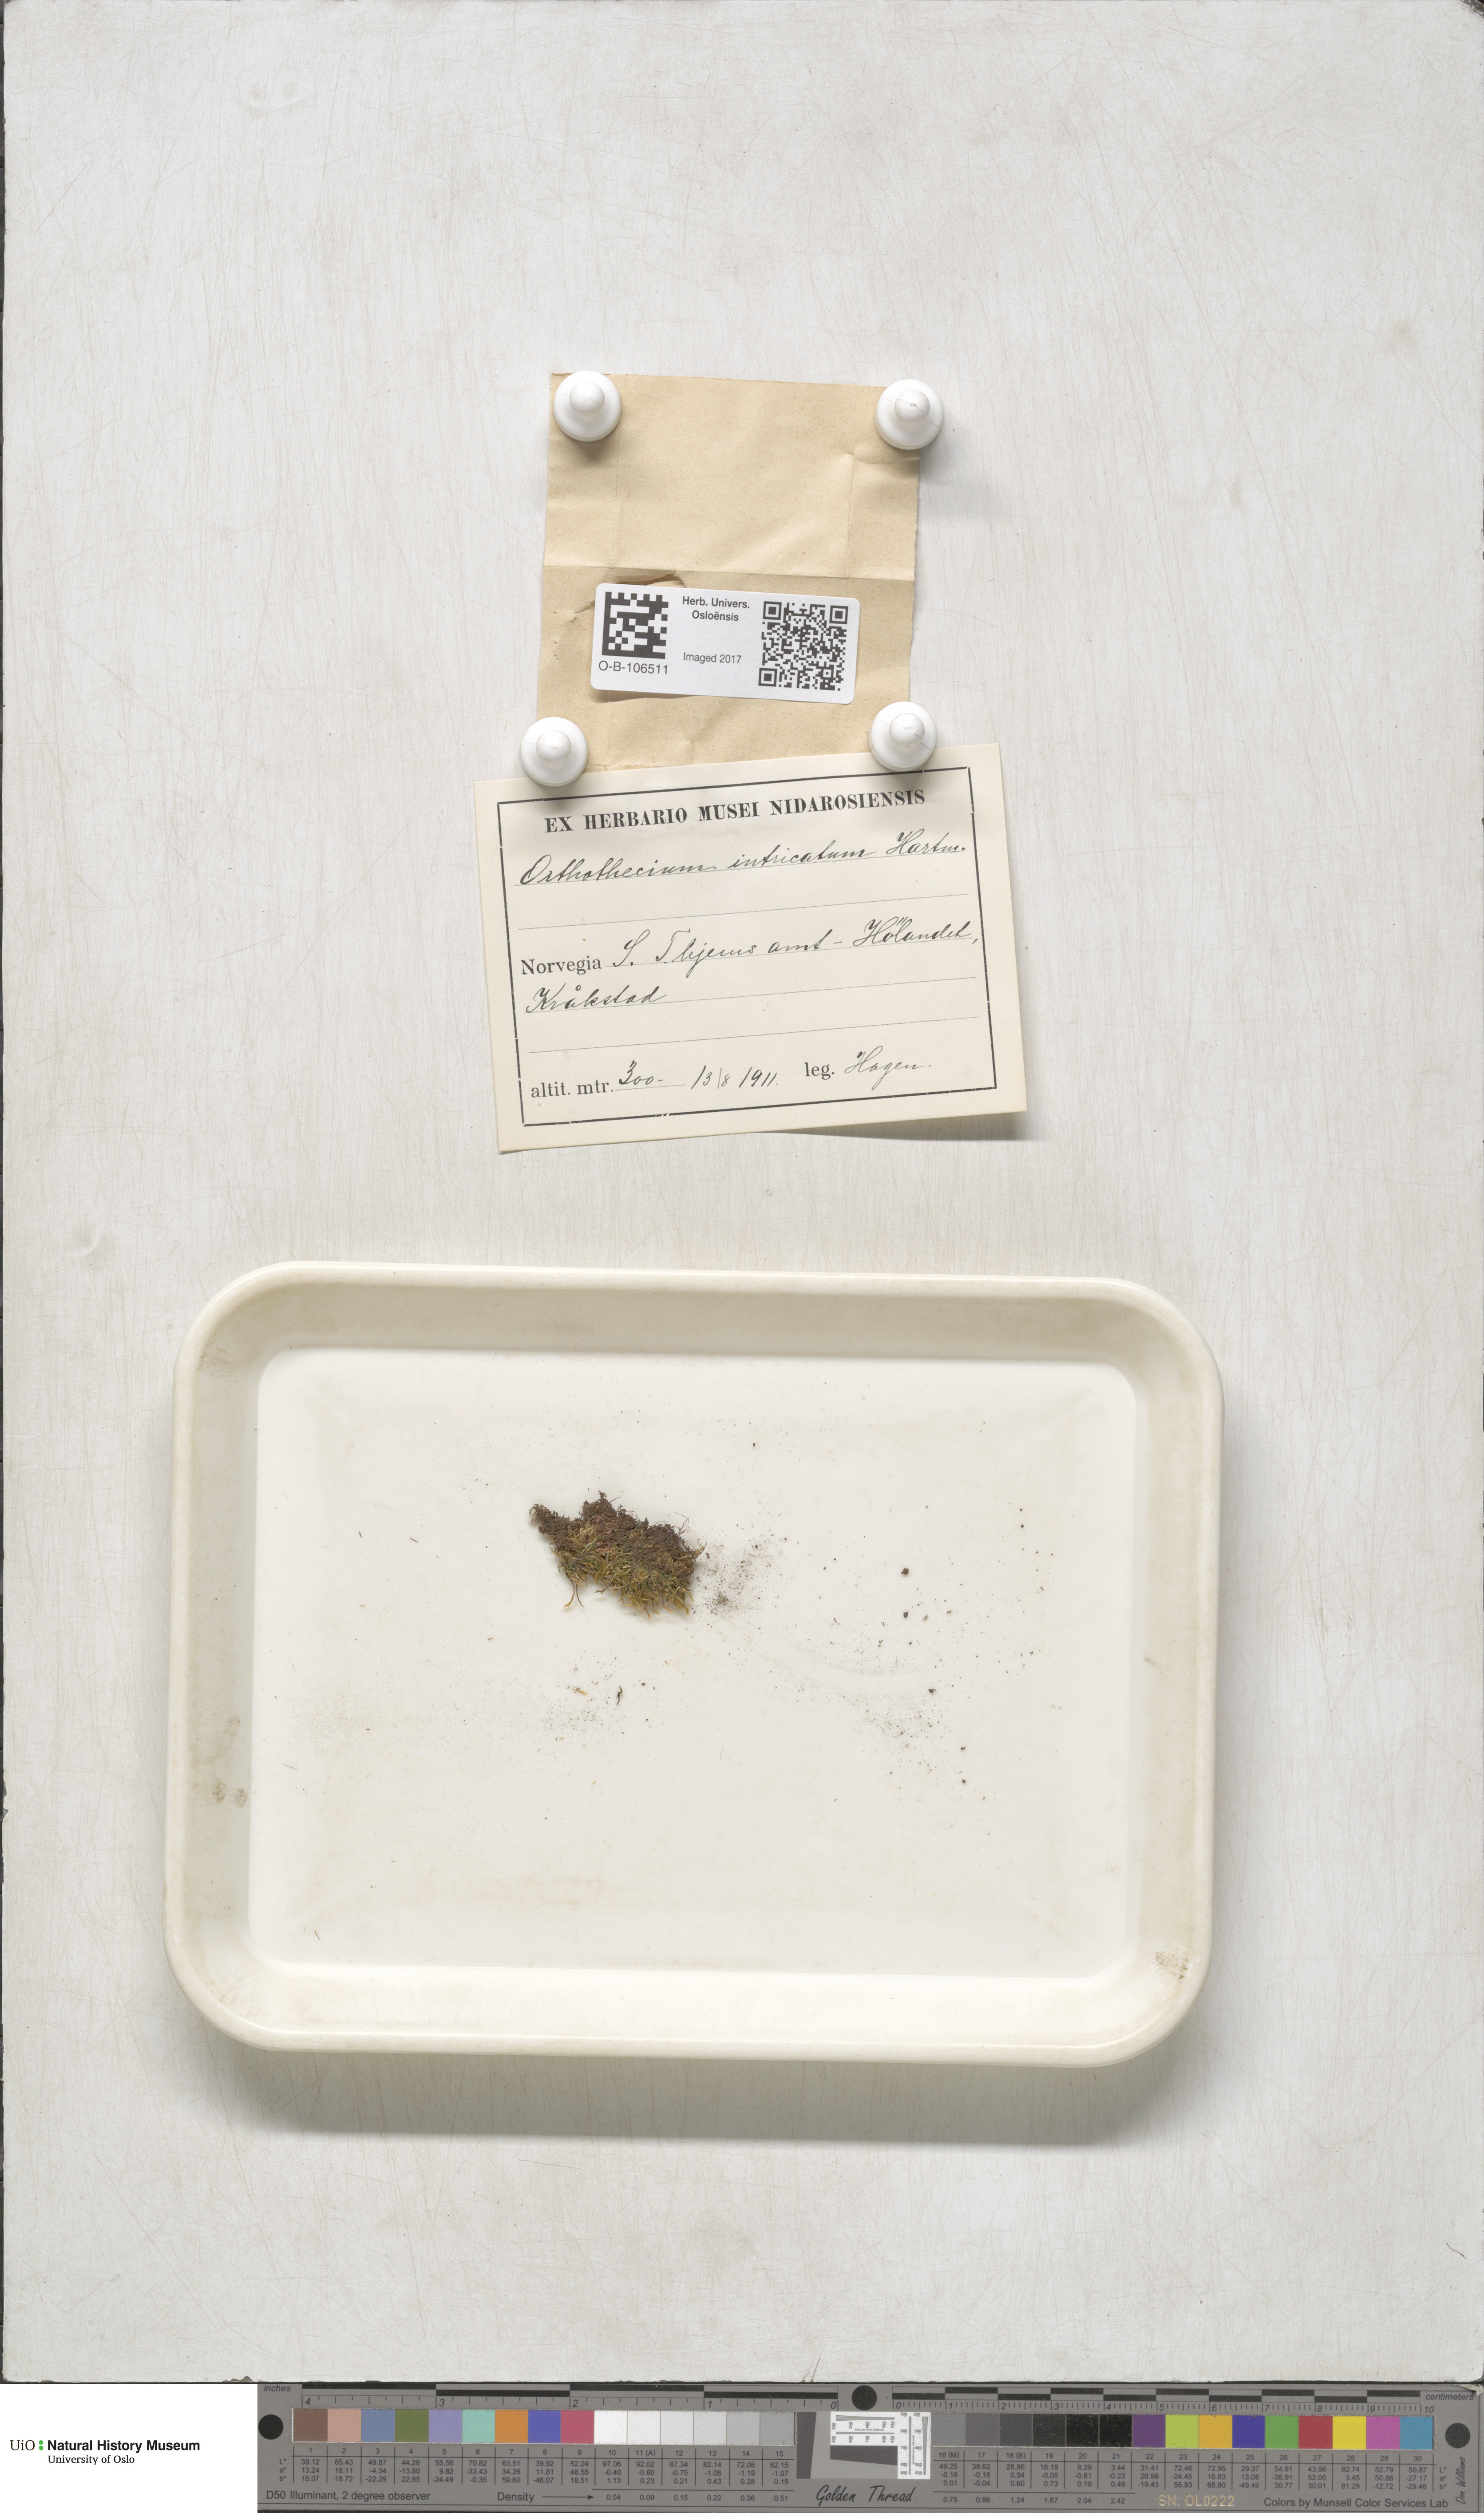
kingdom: Plantae
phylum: Bryophyta
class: Bryopsida
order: Hypnales
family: Plagiotheciaceae
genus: Orthothecium
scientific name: Orthothecium intricatum
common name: Fine-leaved erect-capsule moss
